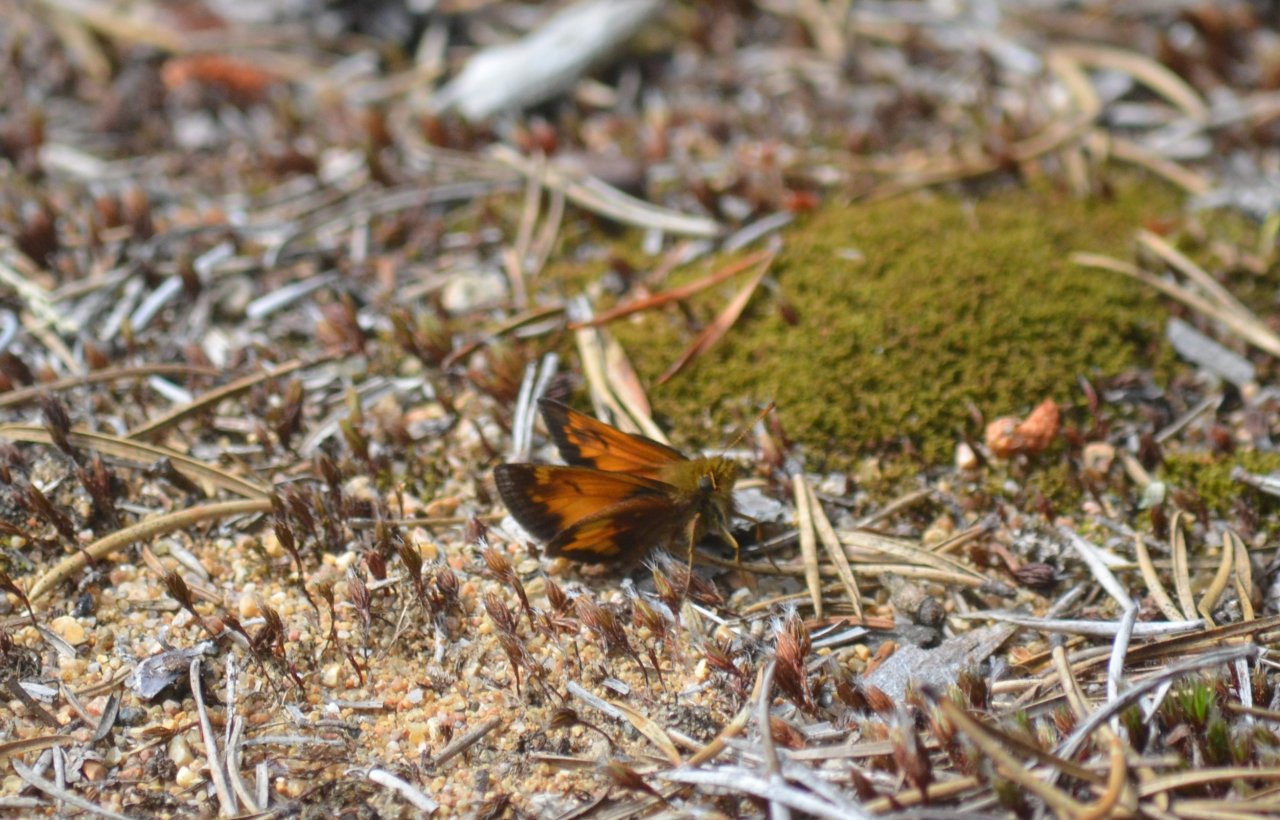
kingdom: Animalia
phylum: Arthropoda
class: Insecta
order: Lepidoptera
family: Hesperiidae
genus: Lon
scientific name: Lon hobomok
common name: Hobomok Skipper
